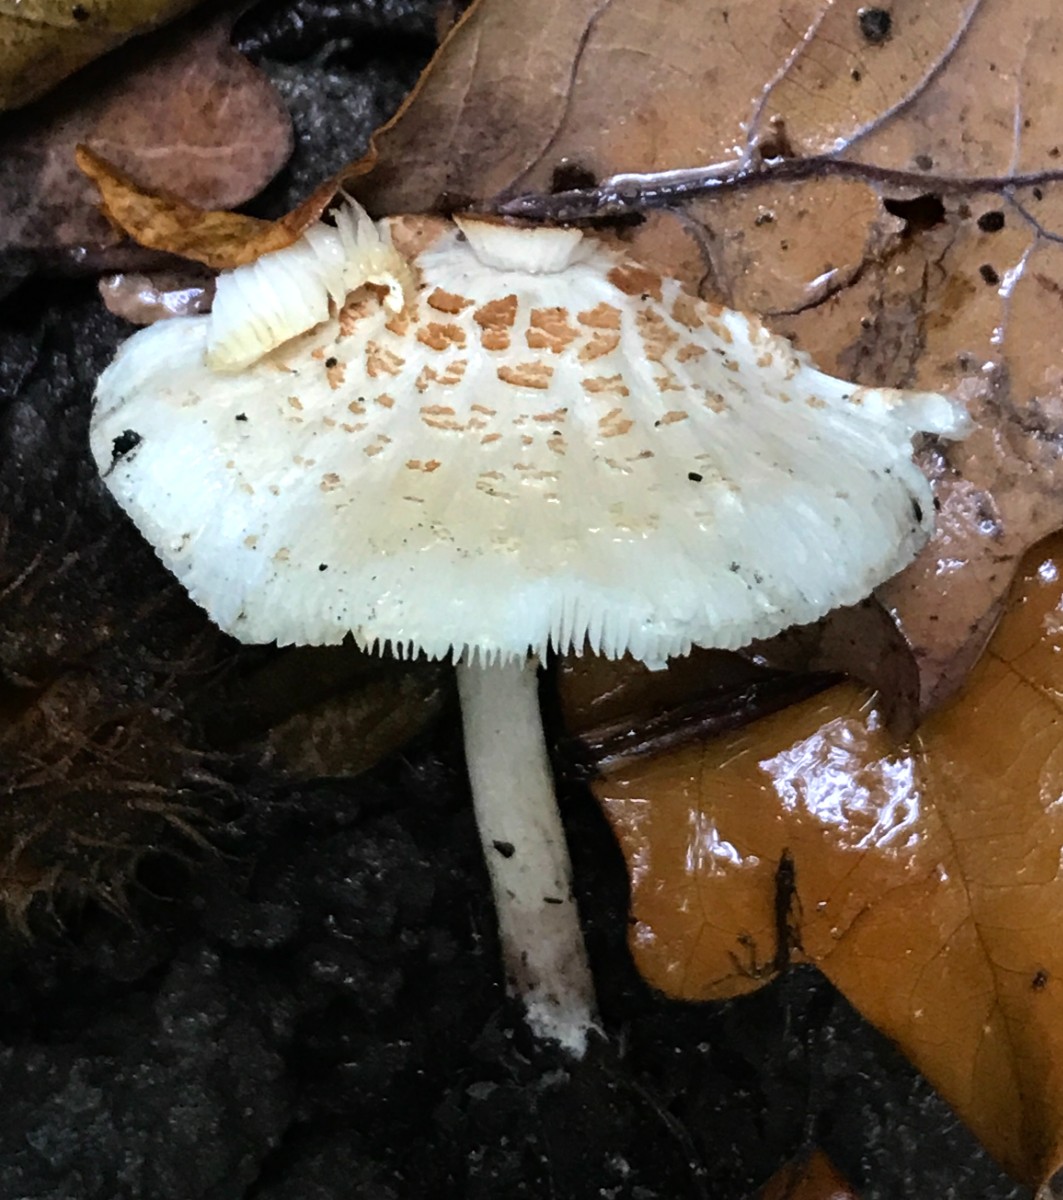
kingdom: Fungi
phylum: Basidiomycota
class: Agaricomycetes
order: Agaricales
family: Agaricaceae
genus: Lepiota
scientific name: Lepiota cristata
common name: stinkende parasolhat
